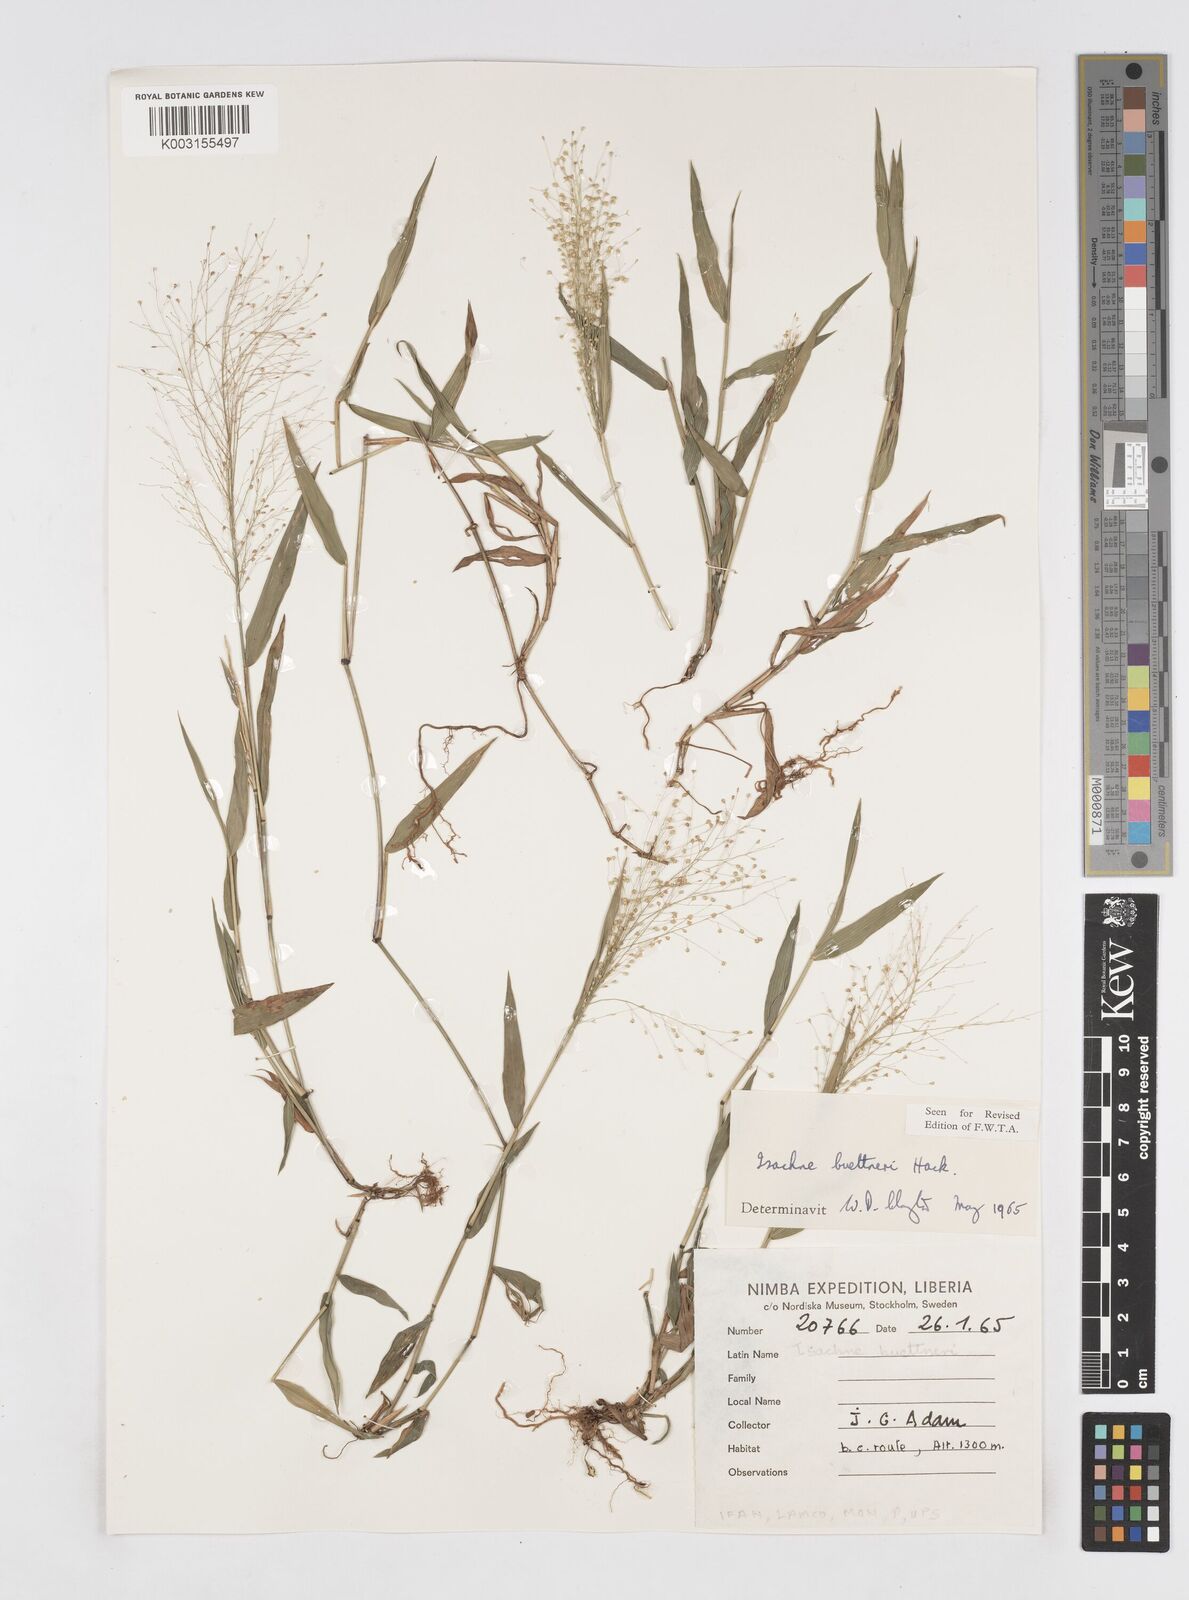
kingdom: Plantae
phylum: Tracheophyta
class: Liliopsida
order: Poales
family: Poaceae
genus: Isachne
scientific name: Isachne albens
